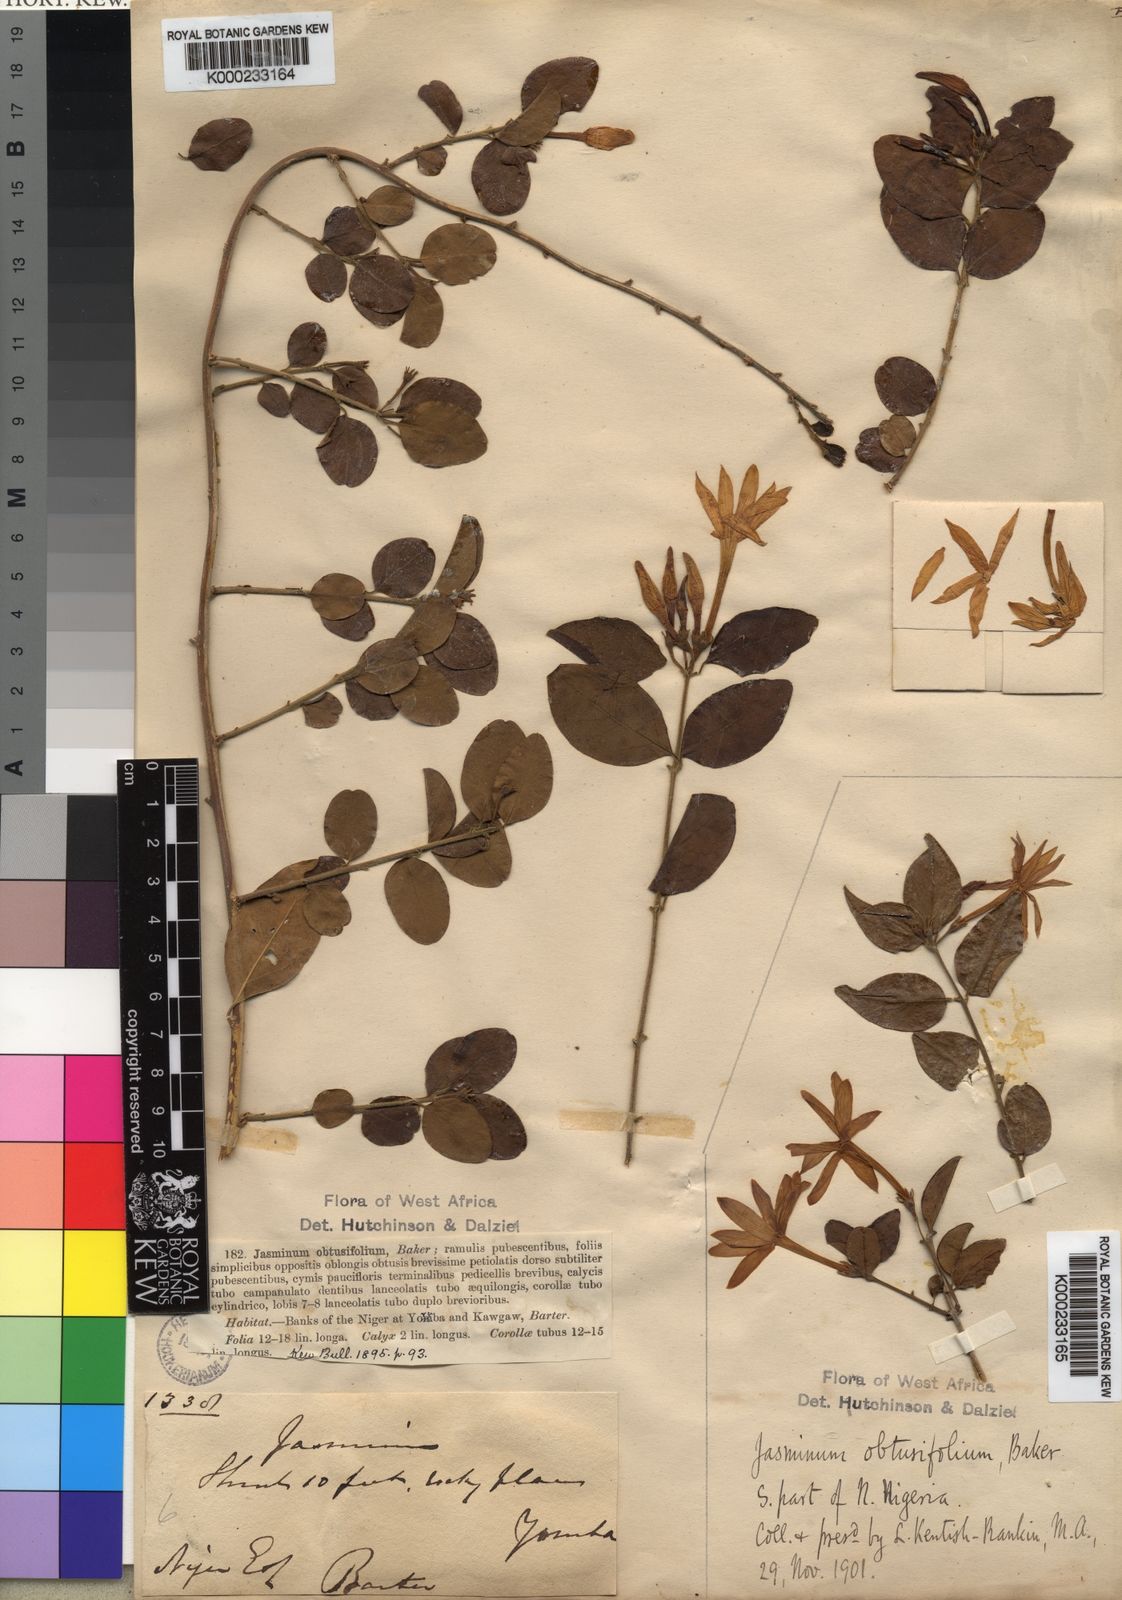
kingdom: Plantae
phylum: Tracheophyta
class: Magnoliopsida
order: Lamiales
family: Oleaceae
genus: Jasminum
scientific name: Jasminum obtusifolium
